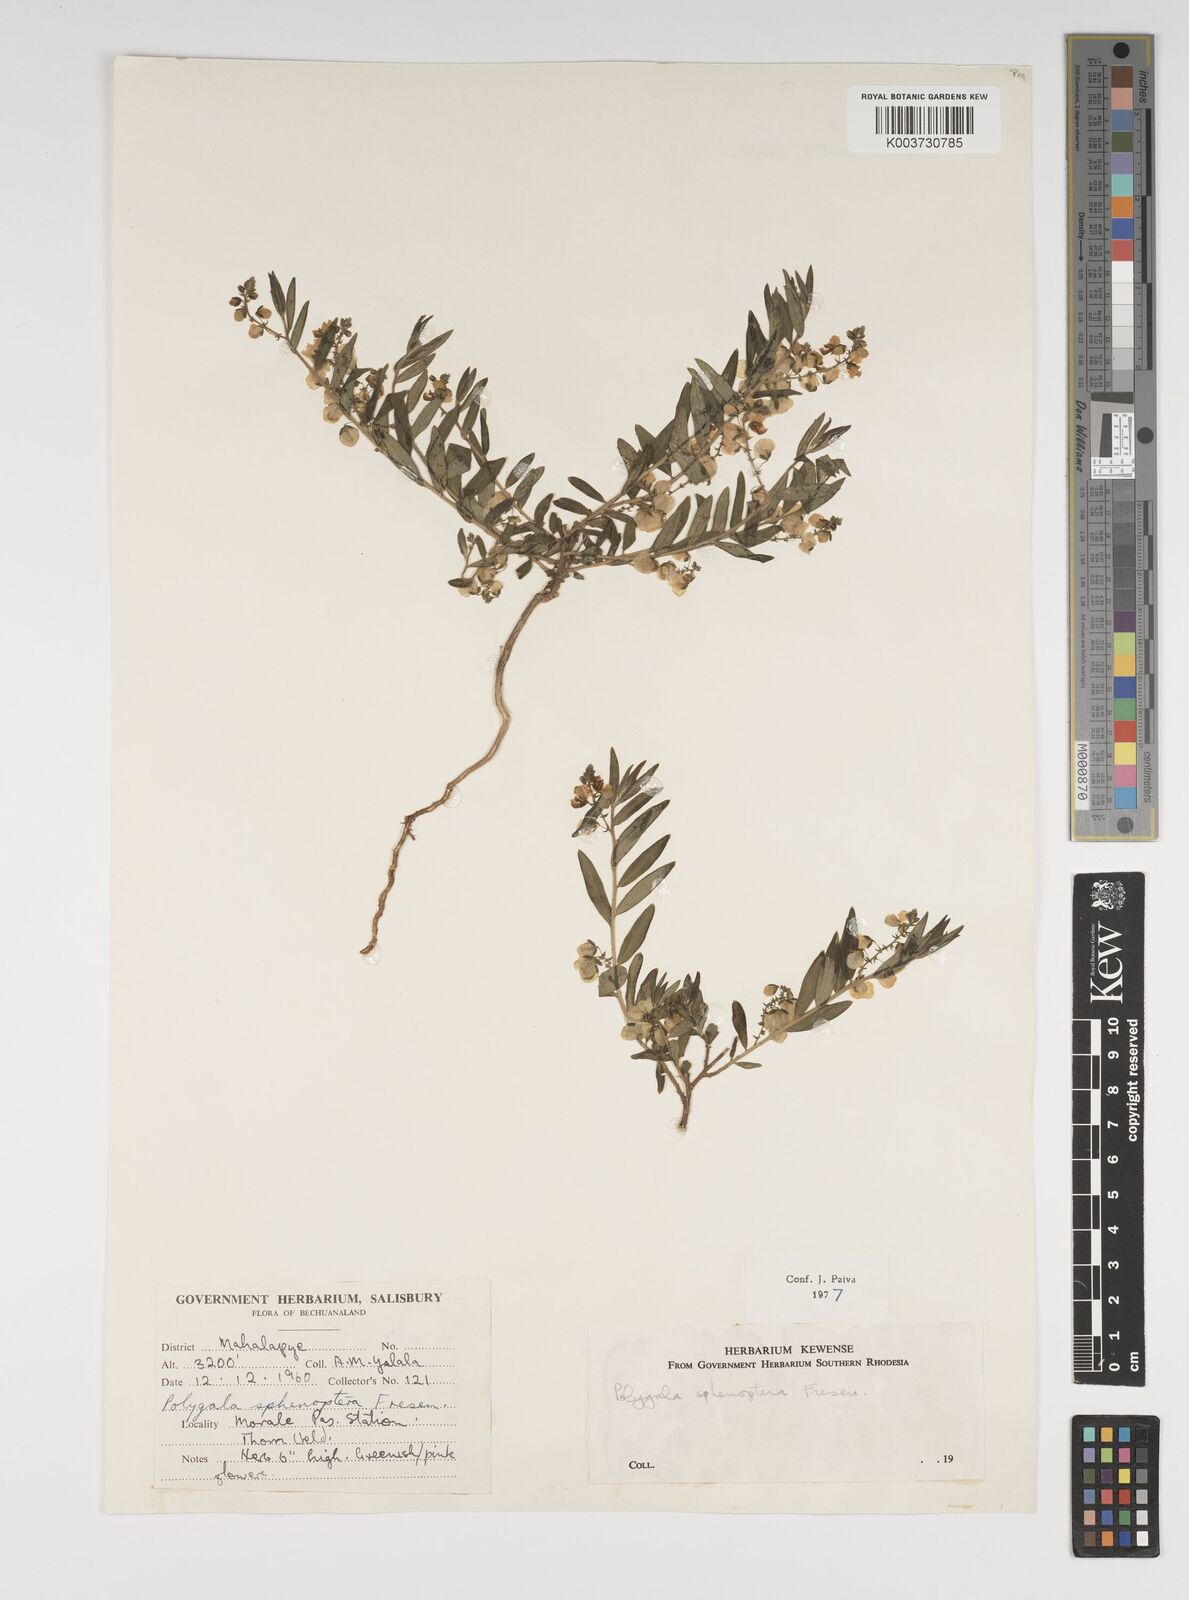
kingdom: Plantae
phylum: Tracheophyta
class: Magnoliopsida
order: Fabales
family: Polygalaceae
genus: Polygala
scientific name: Polygala sphenoptera
